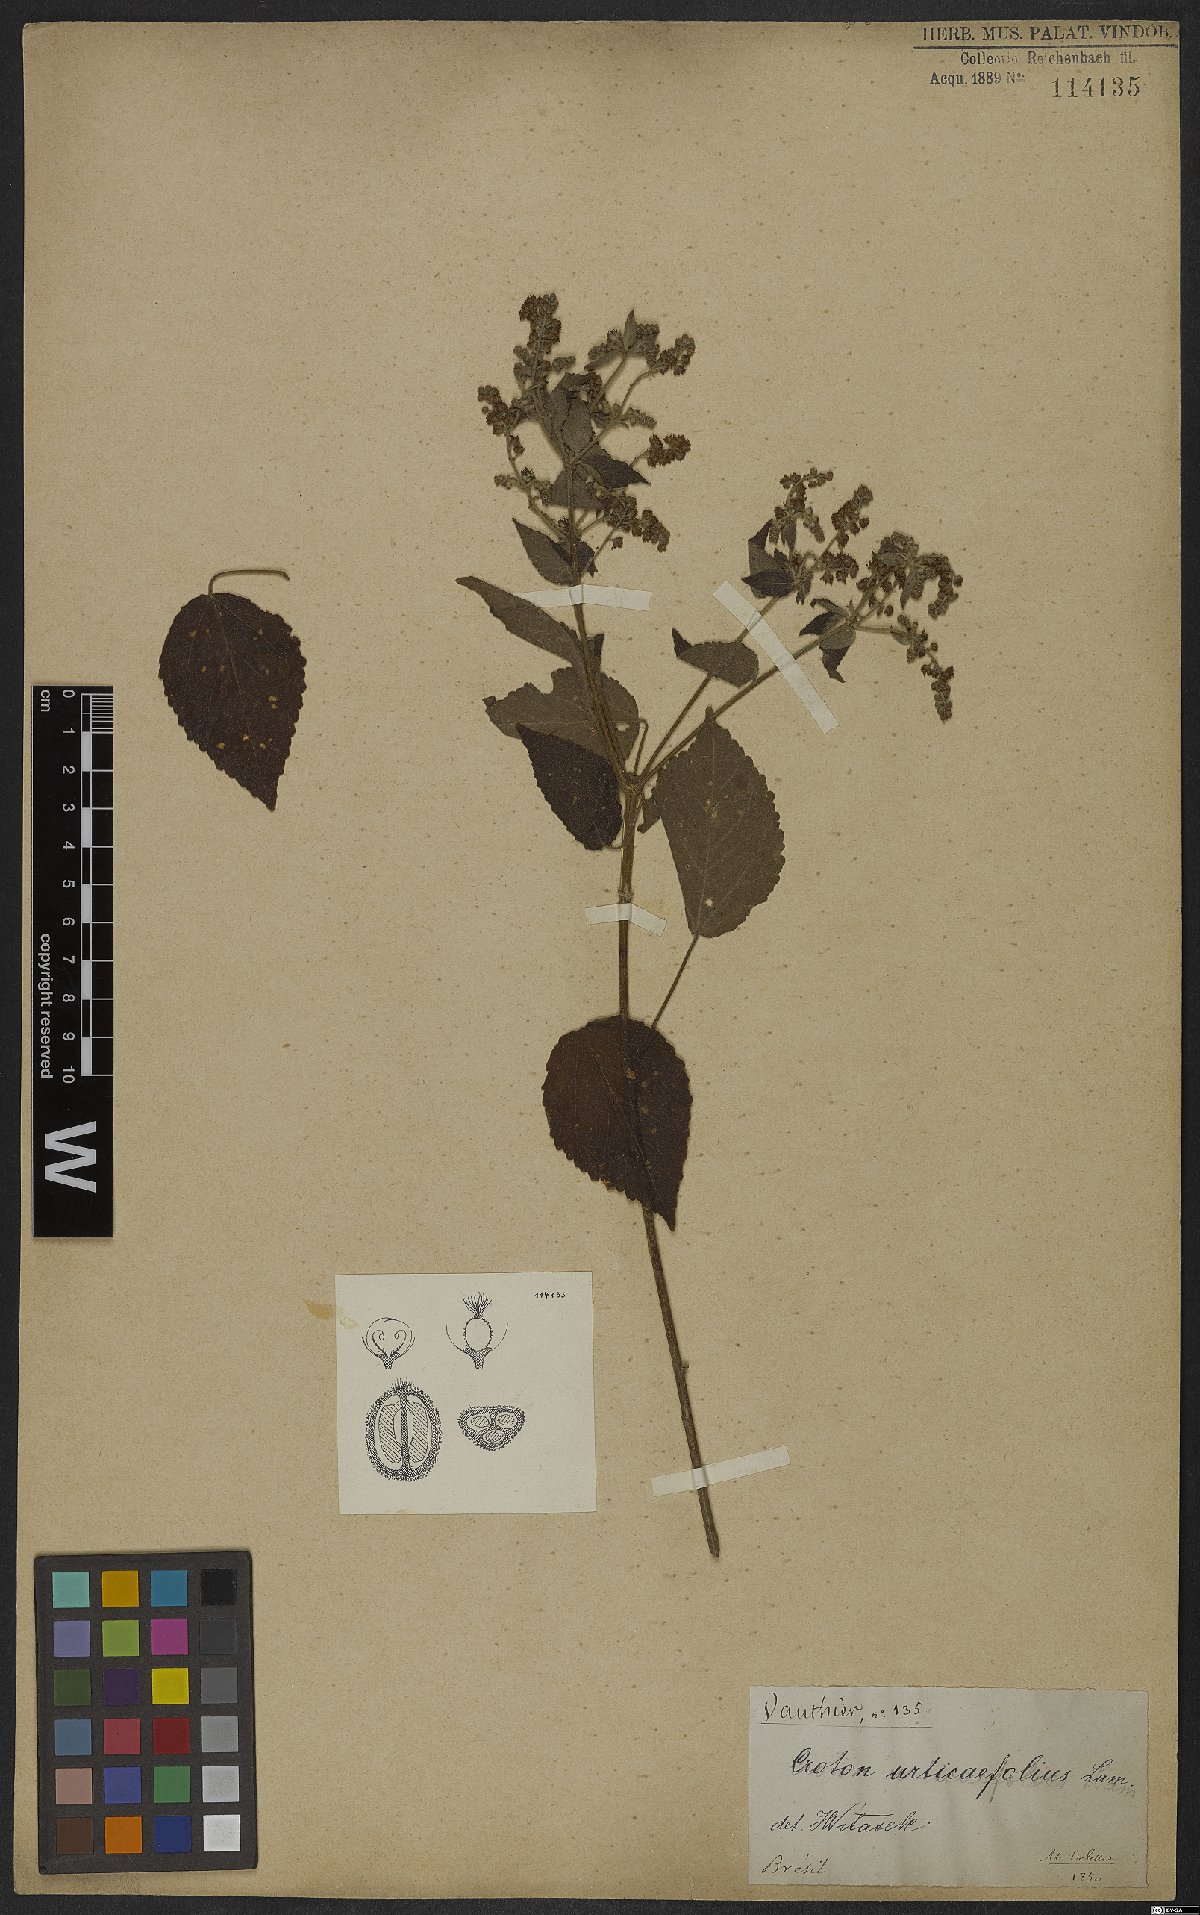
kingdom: Plantae
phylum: Tracheophyta
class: Magnoliopsida
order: Malpighiales
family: Euphorbiaceae
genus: Croton
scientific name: Croton urticifolius
